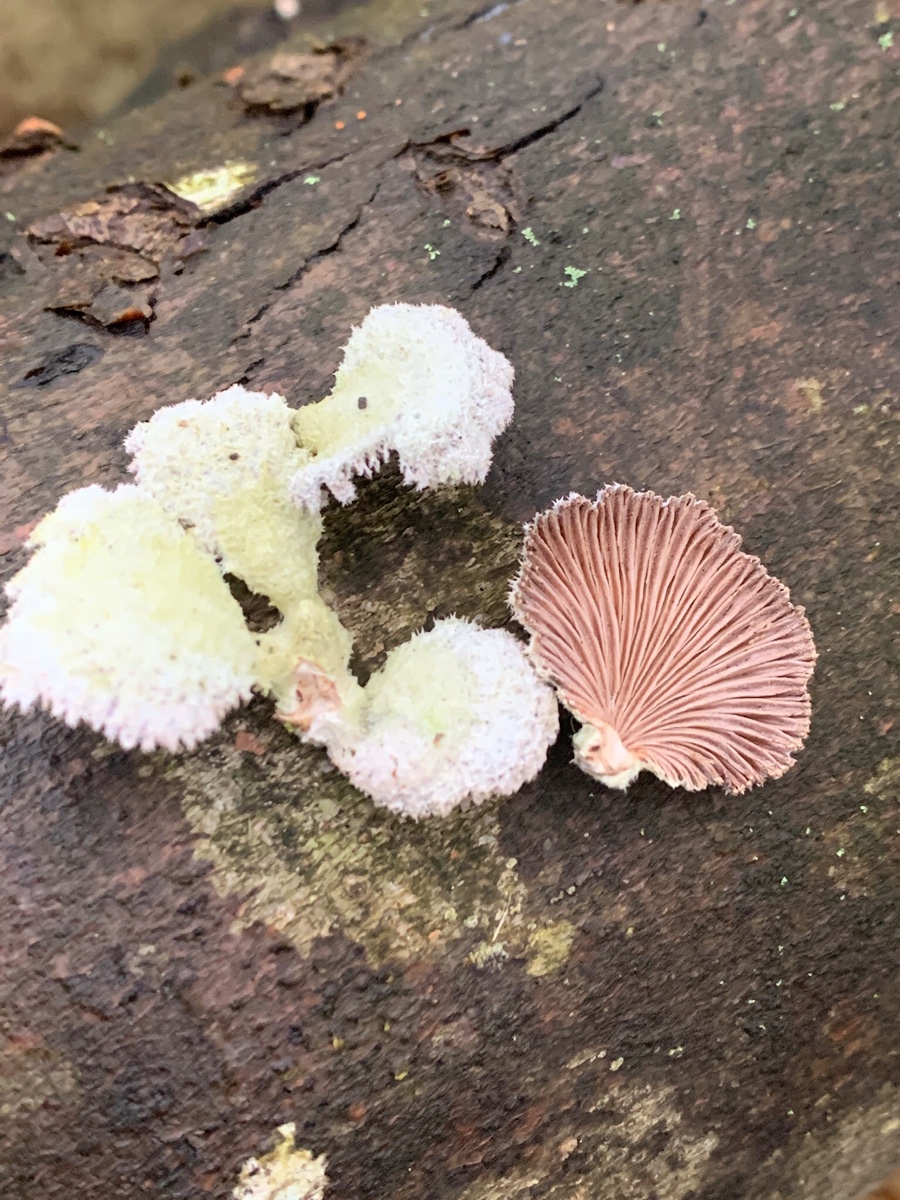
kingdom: Fungi
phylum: Basidiomycota
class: Agaricomycetes
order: Agaricales
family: Schizophyllaceae
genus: Schizophyllum
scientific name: Schizophyllum commune
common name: kløvblad
